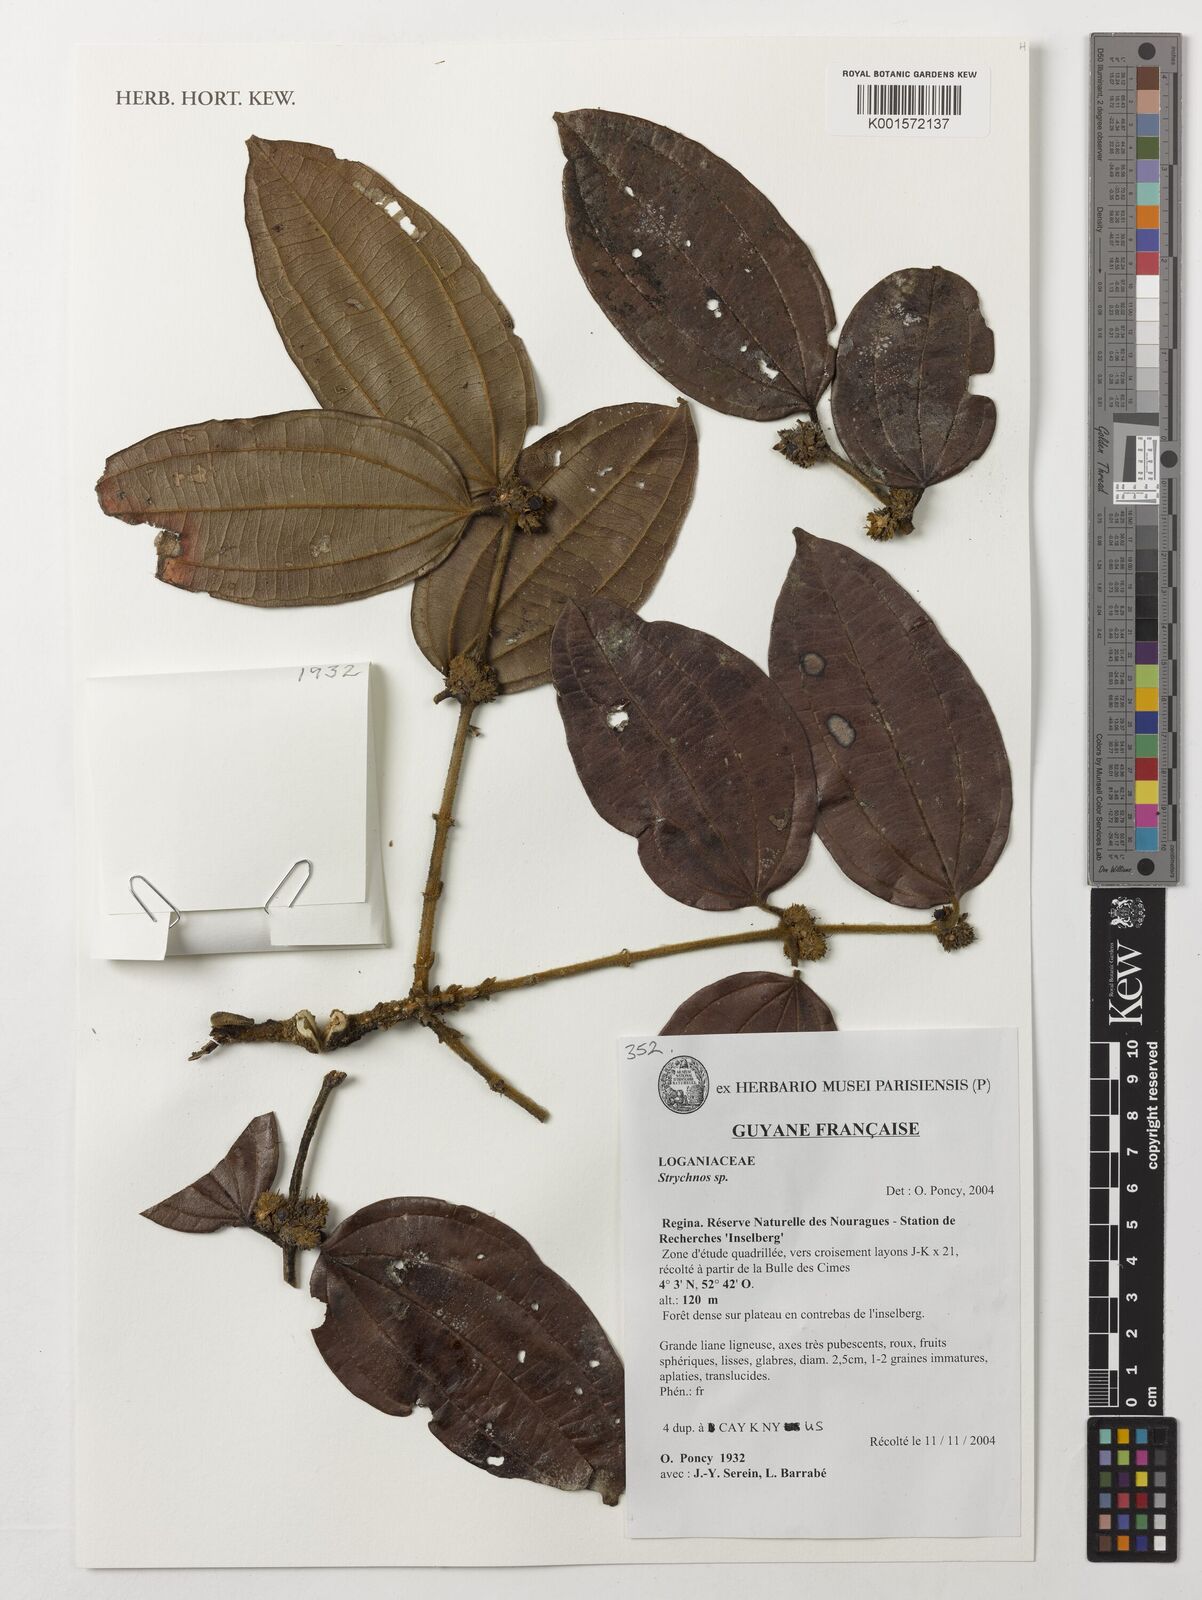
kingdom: Plantae
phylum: Tracheophyta
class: Magnoliopsida
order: Gentianales
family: Loganiaceae
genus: Strychnos
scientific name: Strychnos
